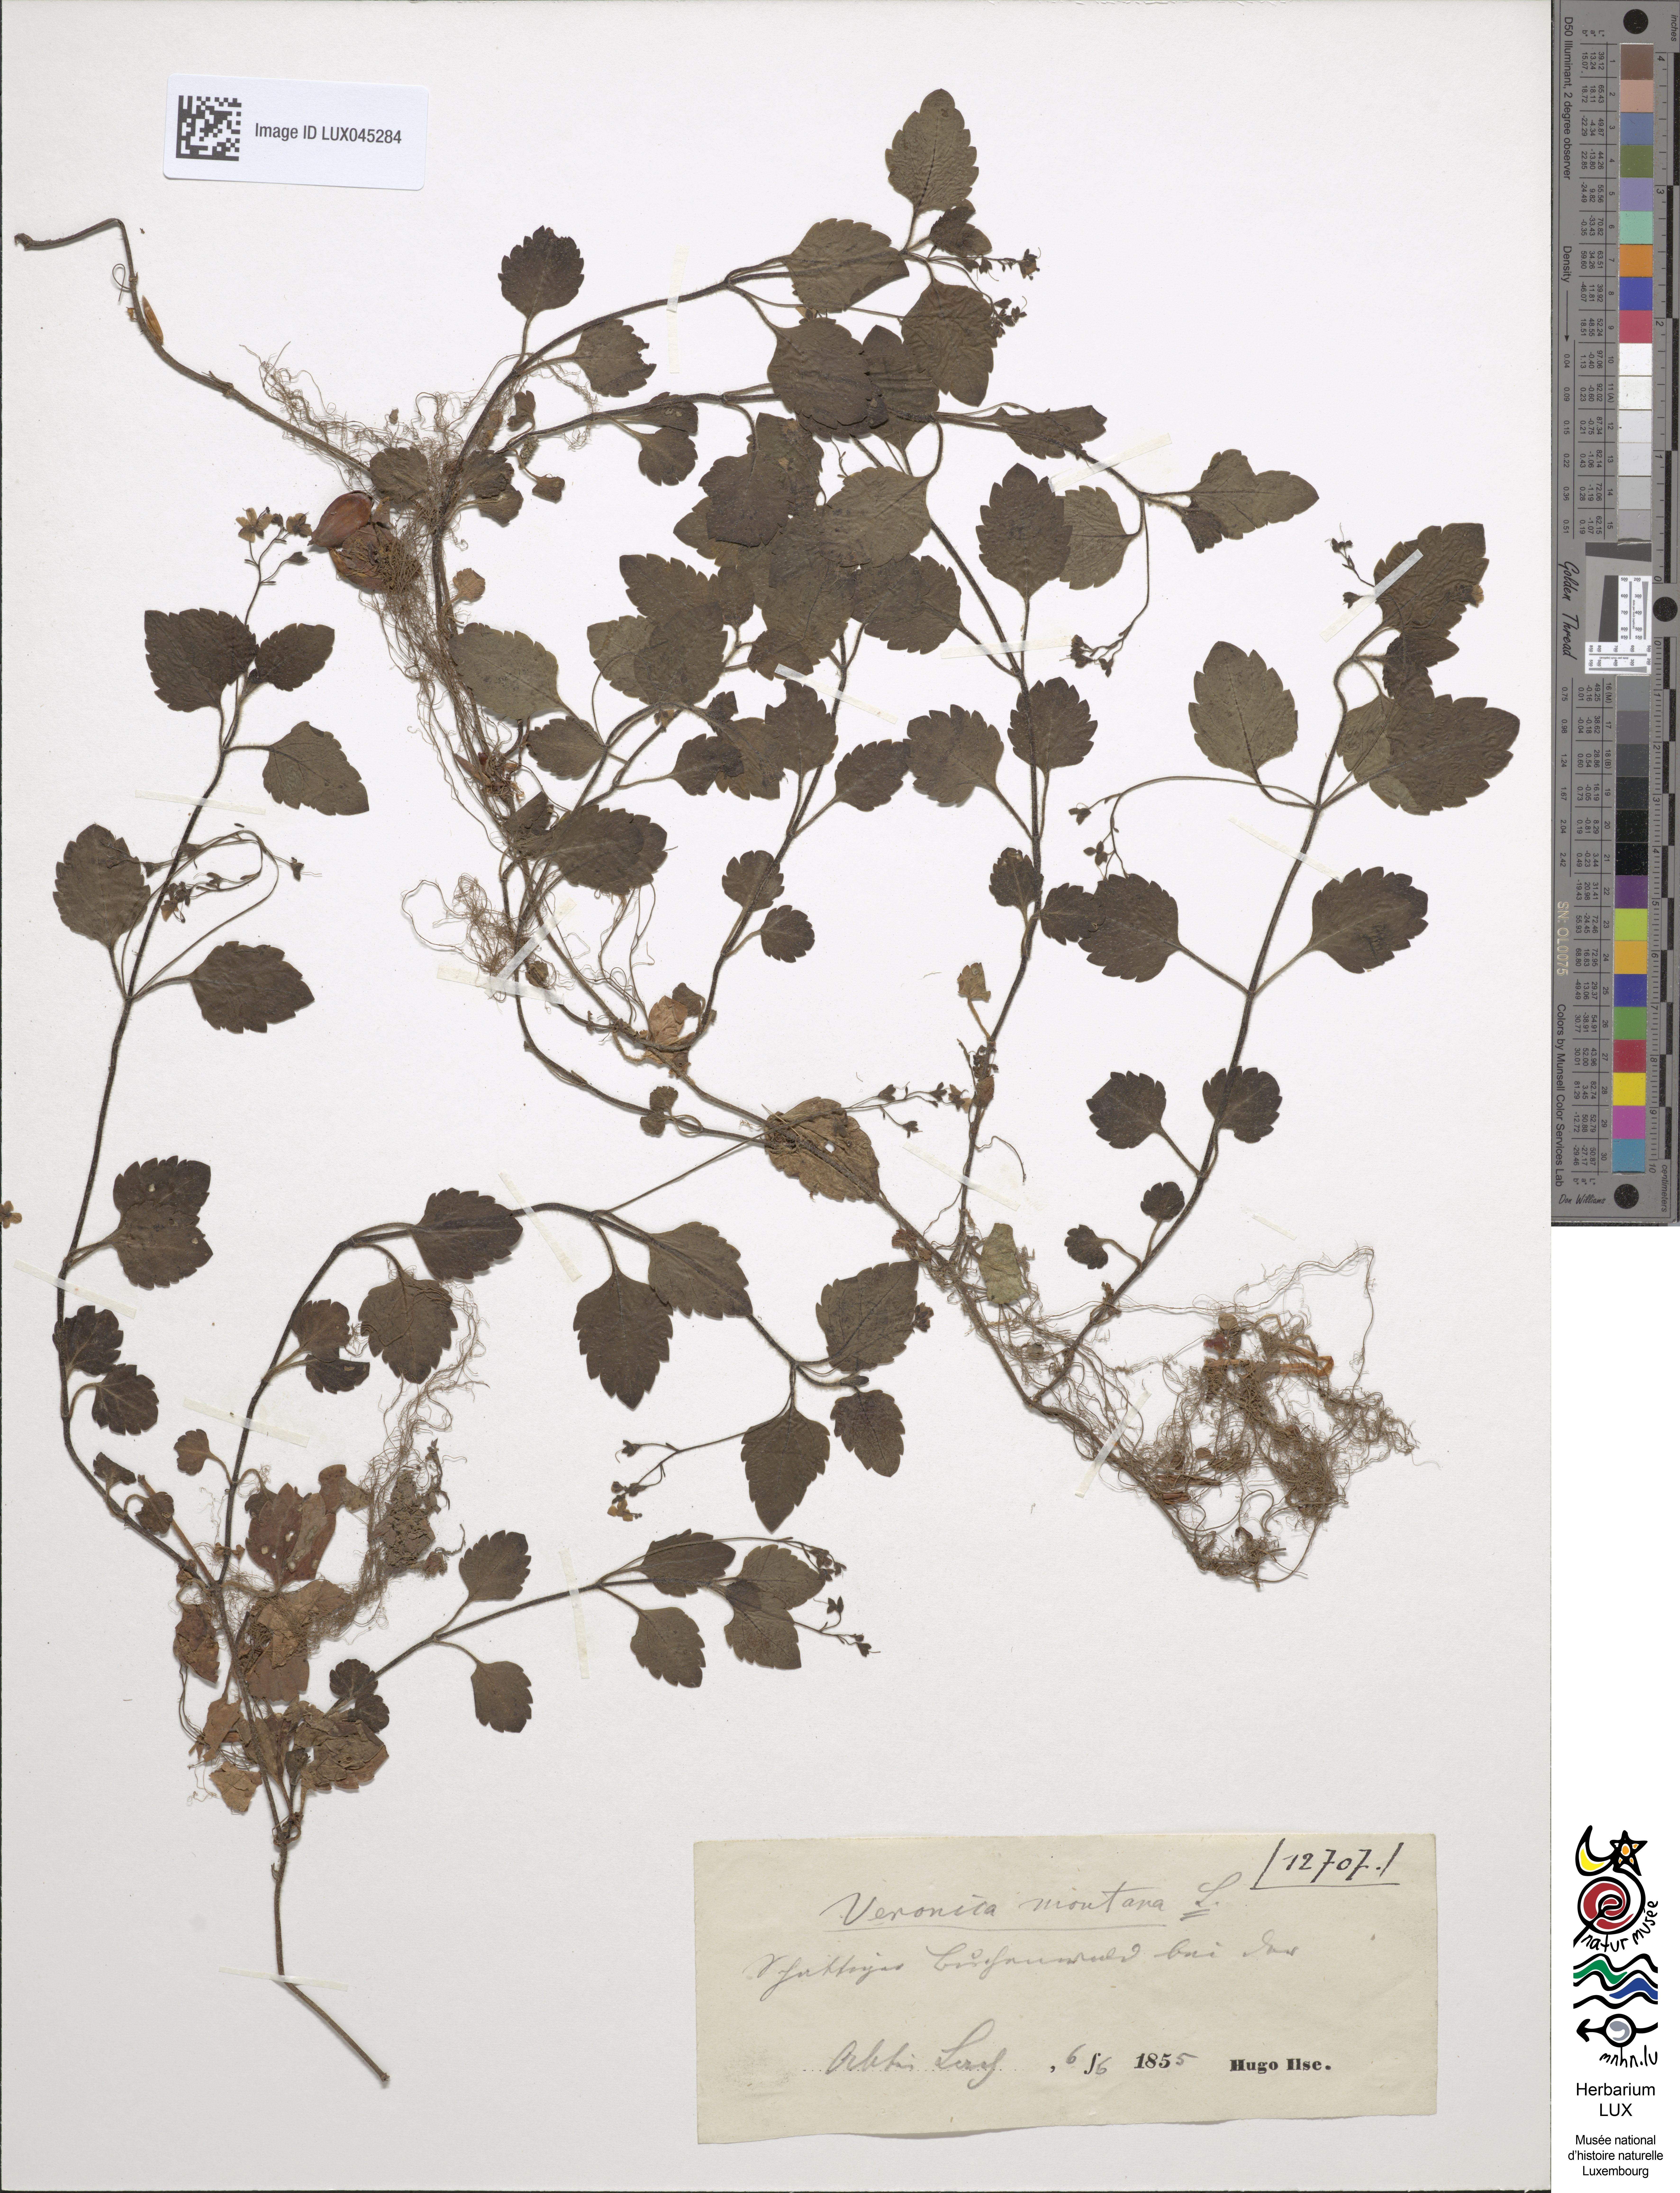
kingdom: Plantae
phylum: Tracheophyta
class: Magnoliopsida
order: Lamiales
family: Plantaginaceae
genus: Veronica
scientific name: Veronica montana
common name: Wood speedwell
